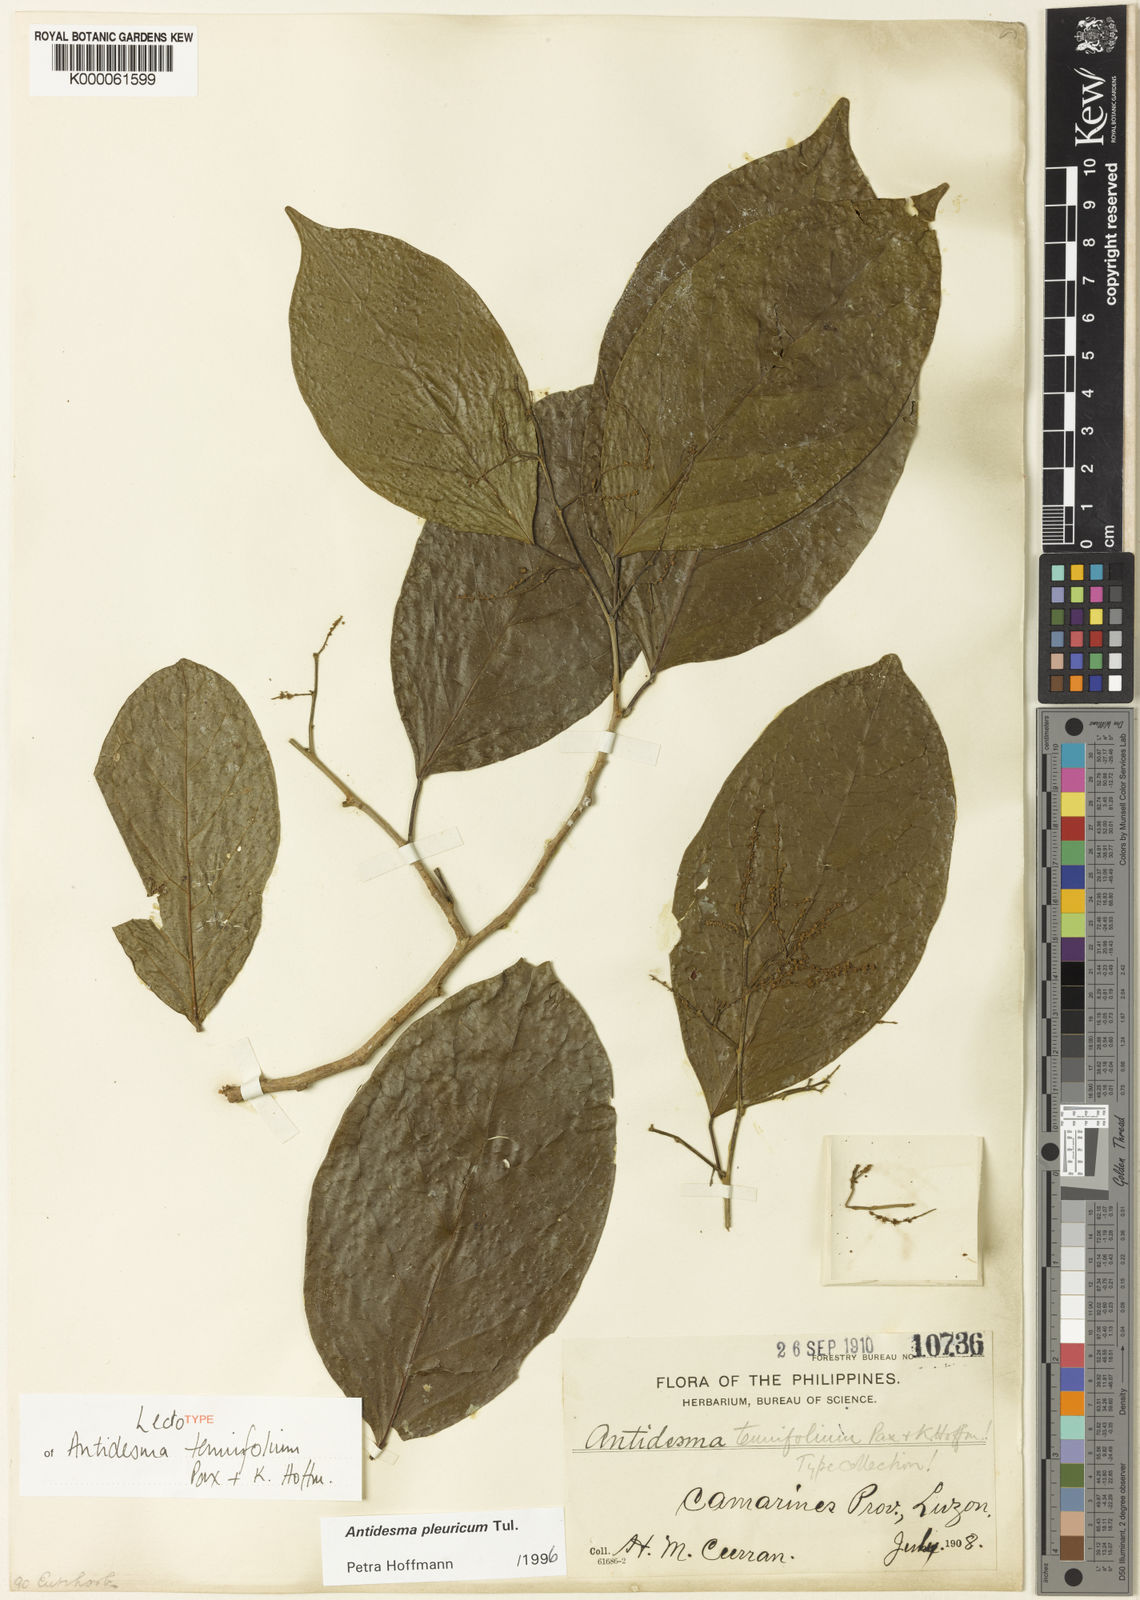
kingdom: Plantae
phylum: Tracheophyta
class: Magnoliopsida
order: Malpighiales
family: Phyllanthaceae
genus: Antidesma
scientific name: Antidesma pleuricum
